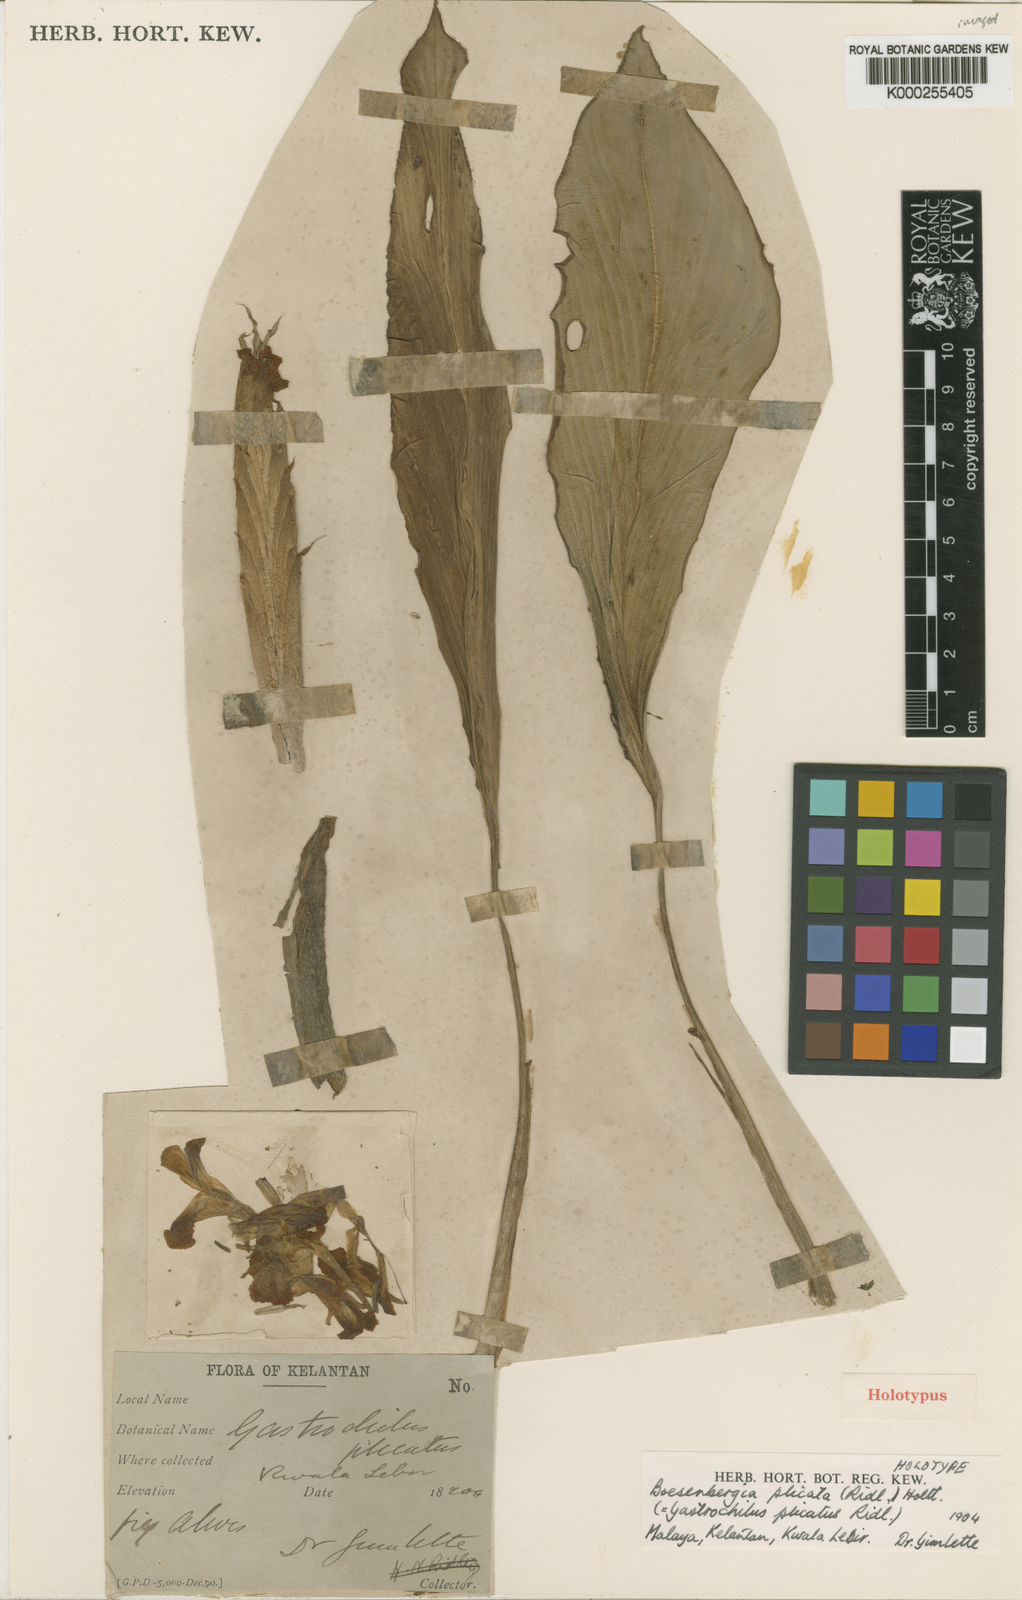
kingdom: Plantae
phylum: Tracheophyta
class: Liliopsida
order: Zingiberales
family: Zingiberaceae
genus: Boesenbergia
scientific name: Boesenbergia plicata
